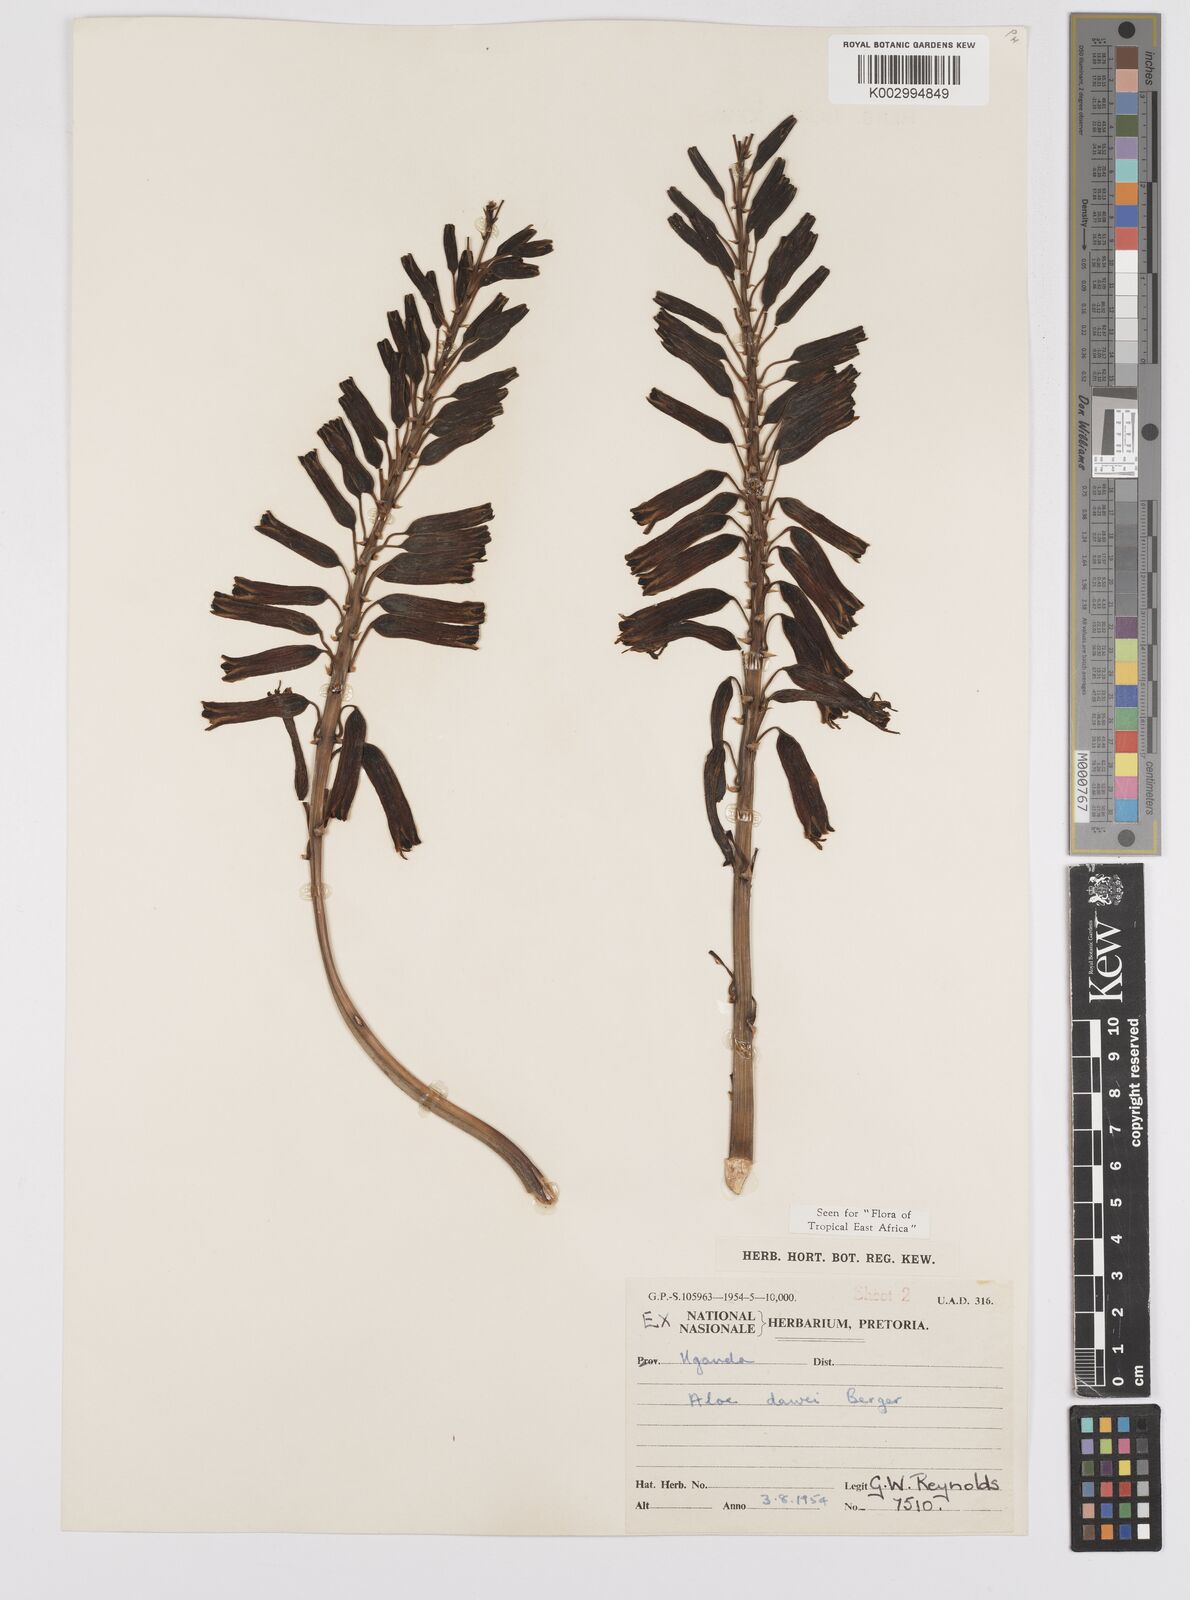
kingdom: Plantae
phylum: Tracheophyta
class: Liliopsida
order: Asparagales
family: Asphodelaceae
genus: Aloe
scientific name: Aloe dawei
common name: Orange flame aloe
